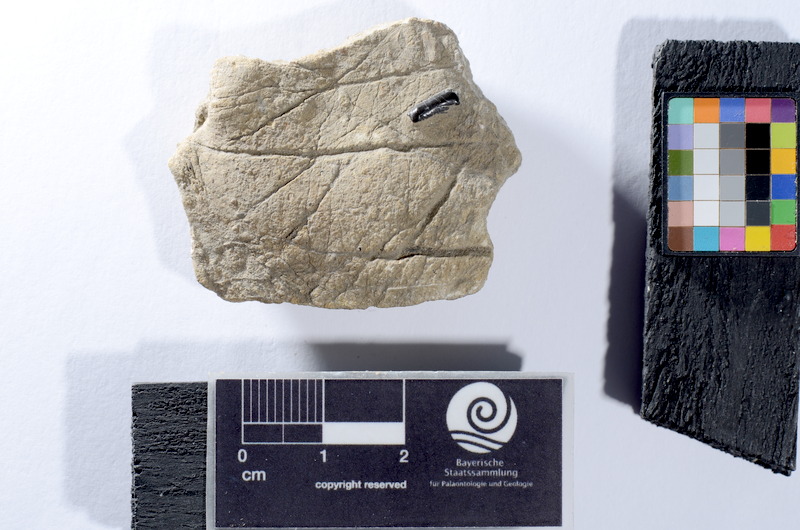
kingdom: Animalia
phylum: Chordata
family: Semionotidae
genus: Sargodon
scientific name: Sargodon tomicus
